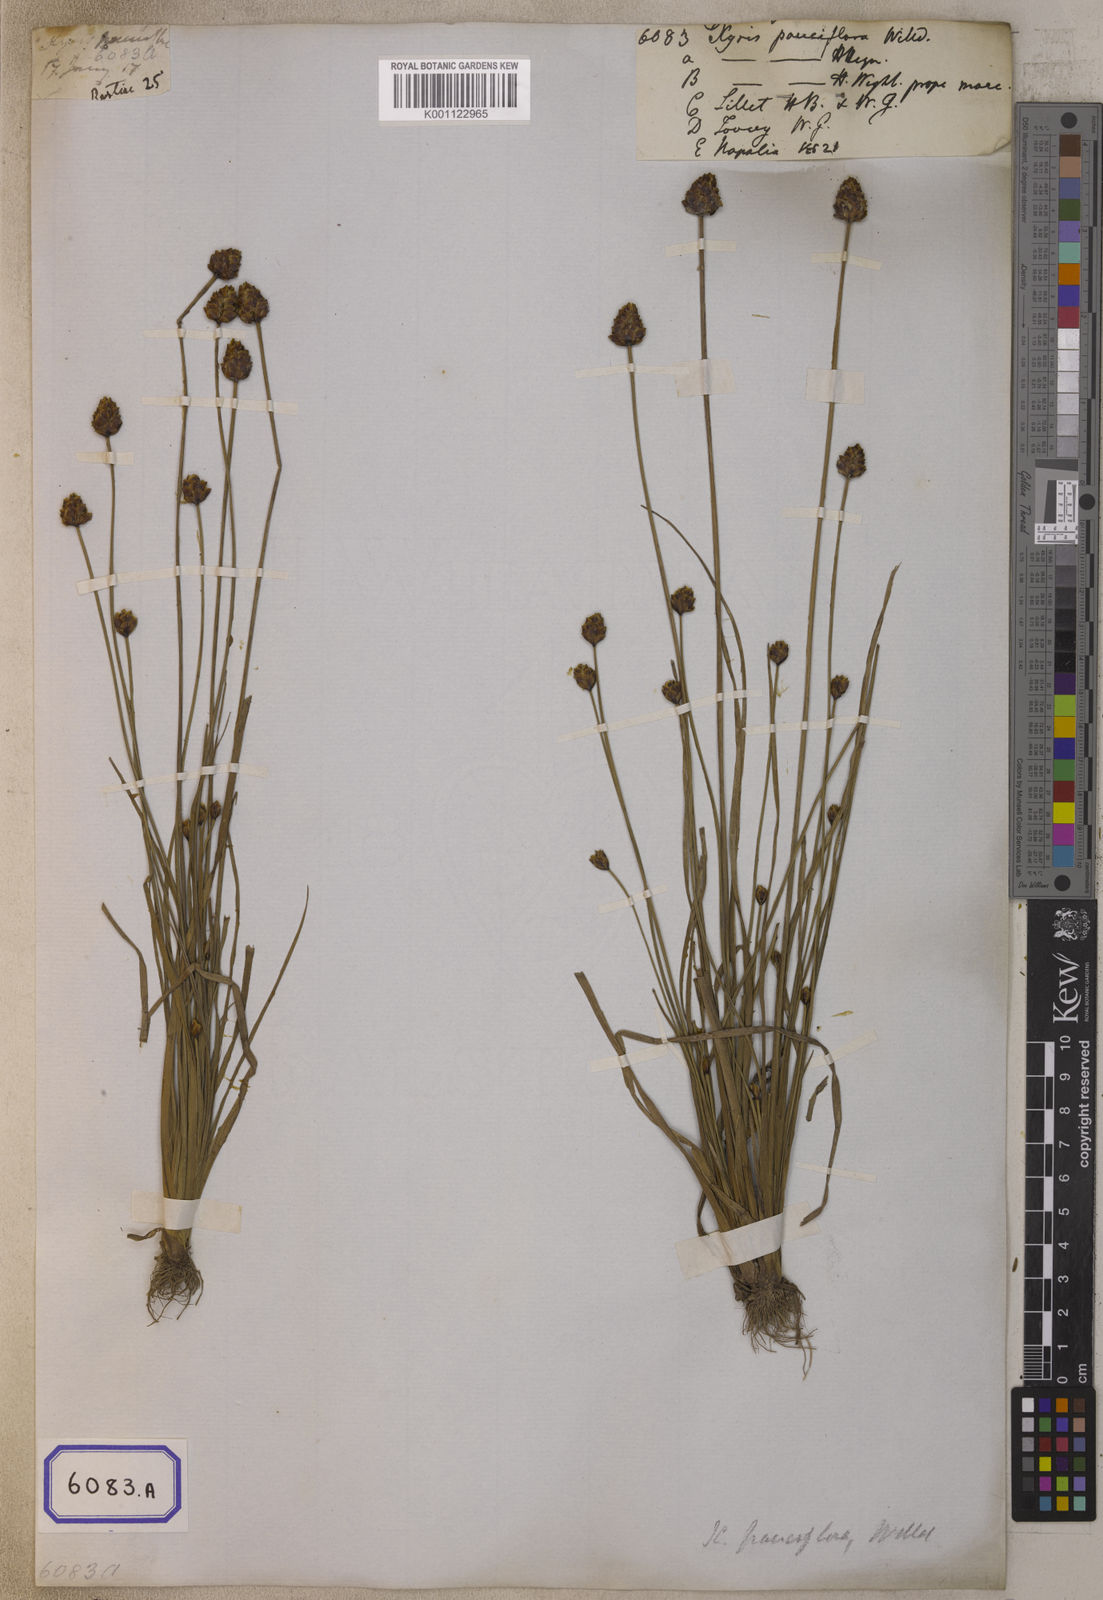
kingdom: Plantae
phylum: Tracheophyta
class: Liliopsida
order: Poales
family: Xyridaceae
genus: Xyris
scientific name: Xyris pauciflora
